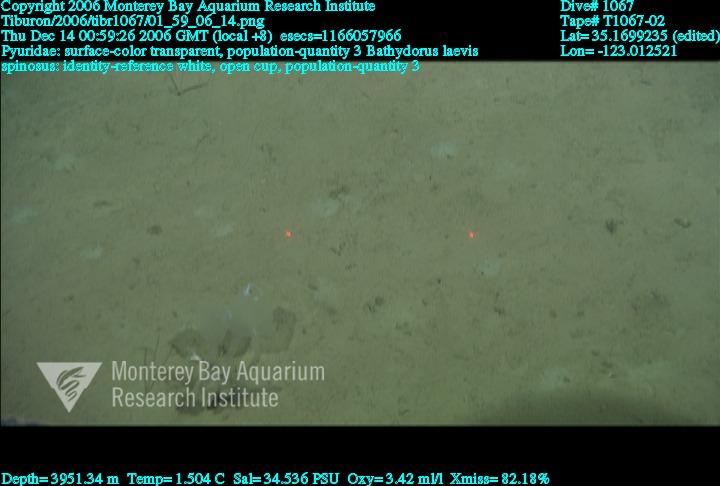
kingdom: Animalia
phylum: Porifera
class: Hexactinellida
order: Lyssacinosida
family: Rossellidae
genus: Bathydorus
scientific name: Bathydorus spinosus
